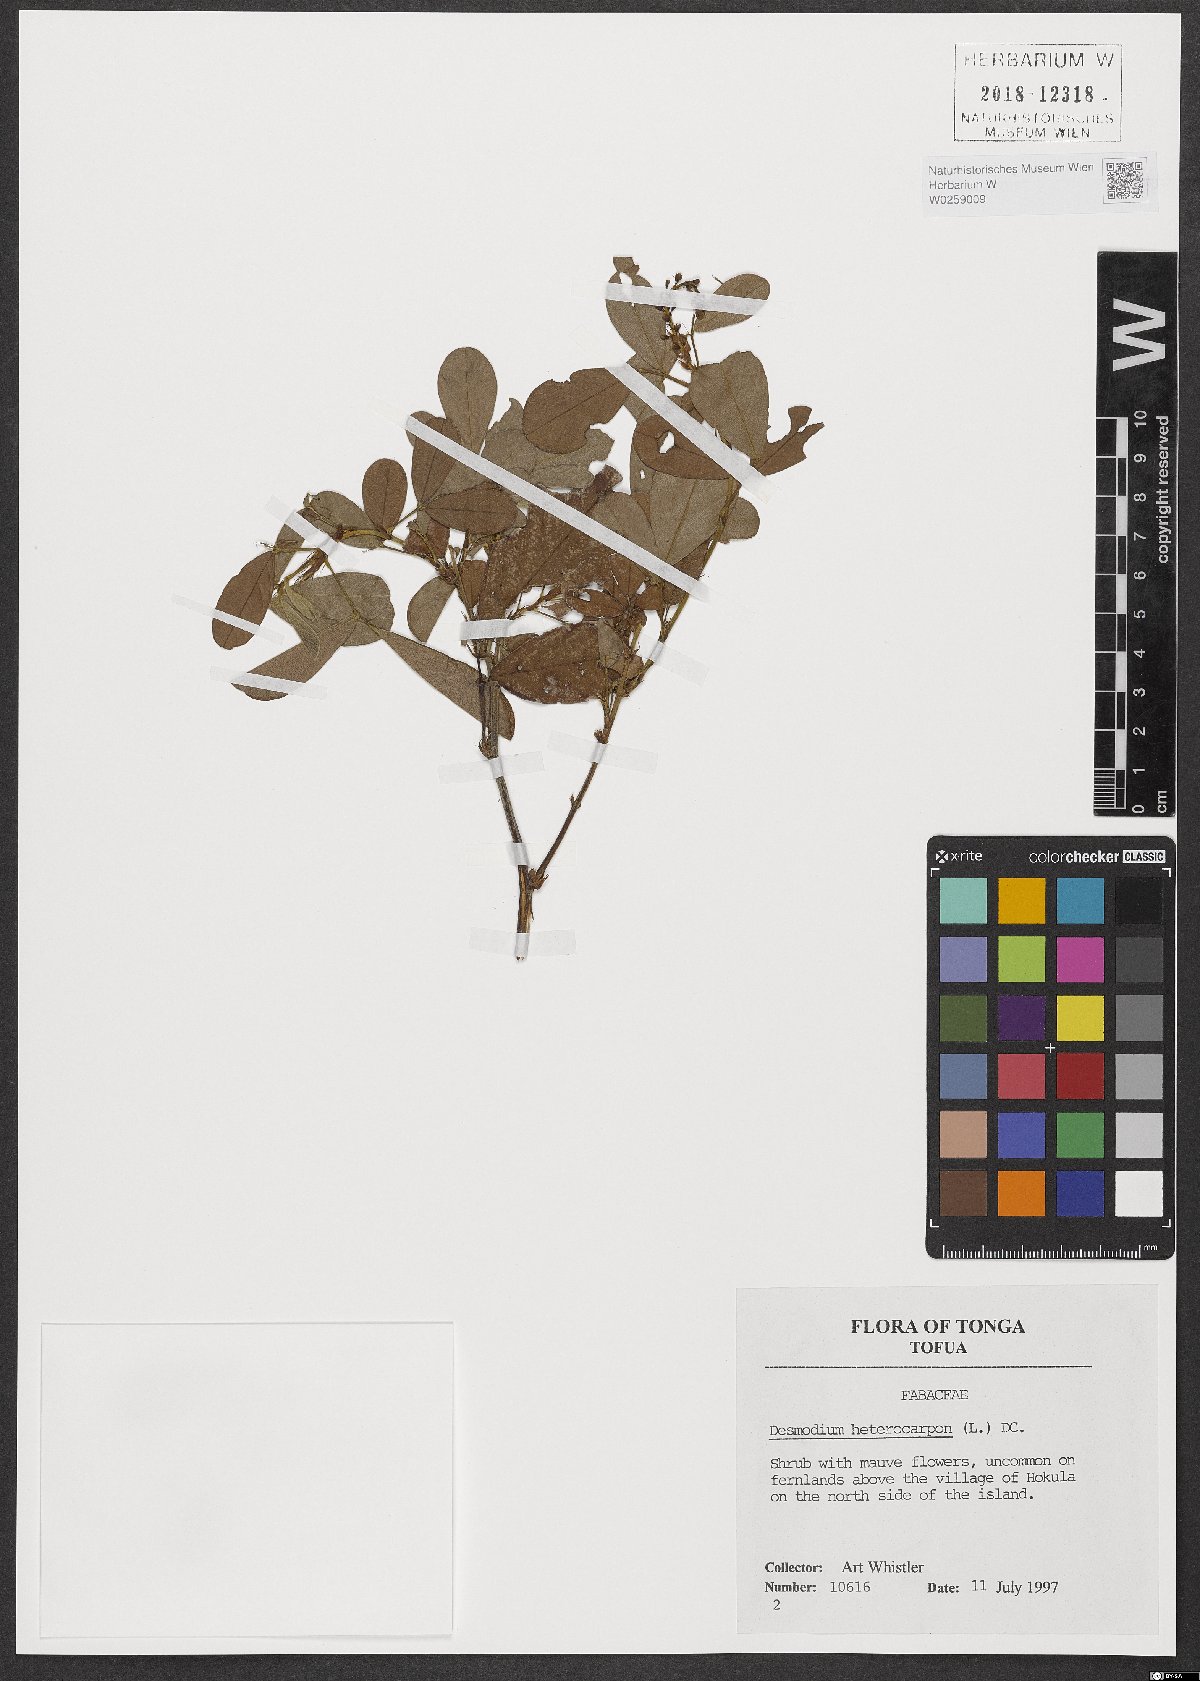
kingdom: Plantae
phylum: Tracheophyta
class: Magnoliopsida
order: Fabales
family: Fabaceae
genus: Grona
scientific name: Grona heterocarpos
